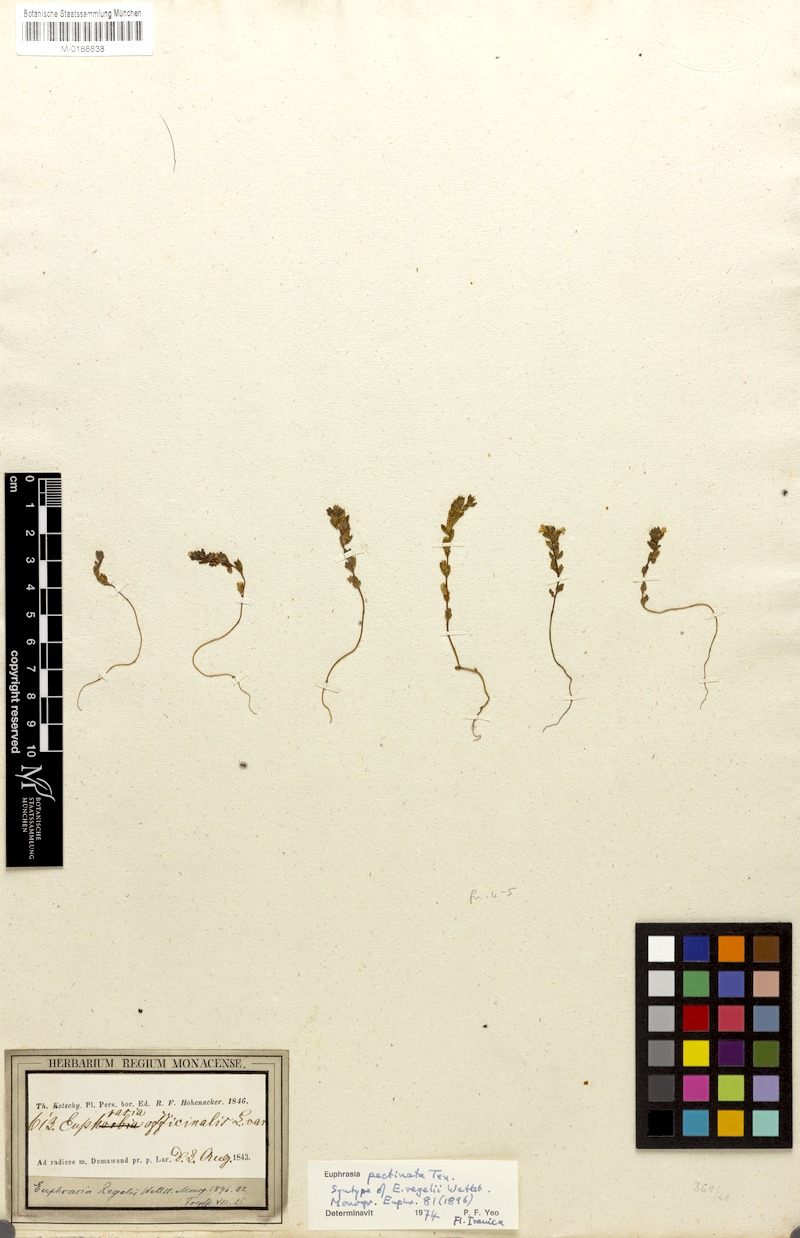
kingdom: Plantae
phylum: Tracheophyta
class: Magnoliopsida
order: Lamiales
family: Orobanchaceae
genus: Euphrasia
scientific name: Euphrasia pectinata
